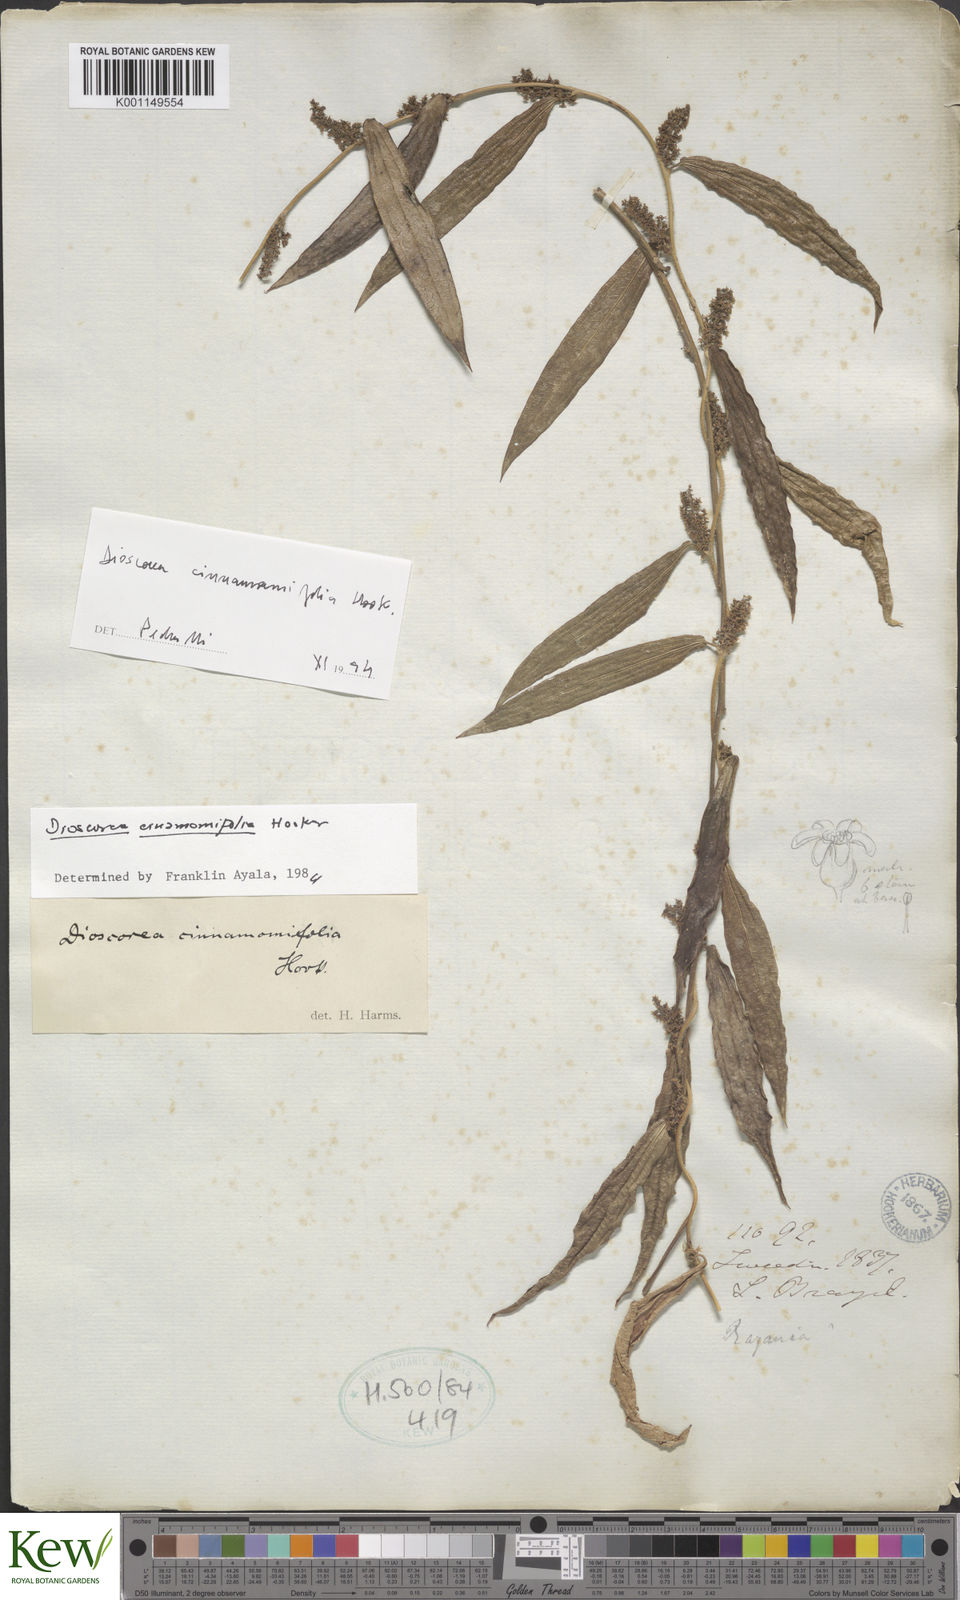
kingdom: Plantae
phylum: Tracheophyta
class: Liliopsida
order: Dioscoreales
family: Dioscoreaceae
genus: Dioscorea
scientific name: Dioscorea cinnamomifolia
